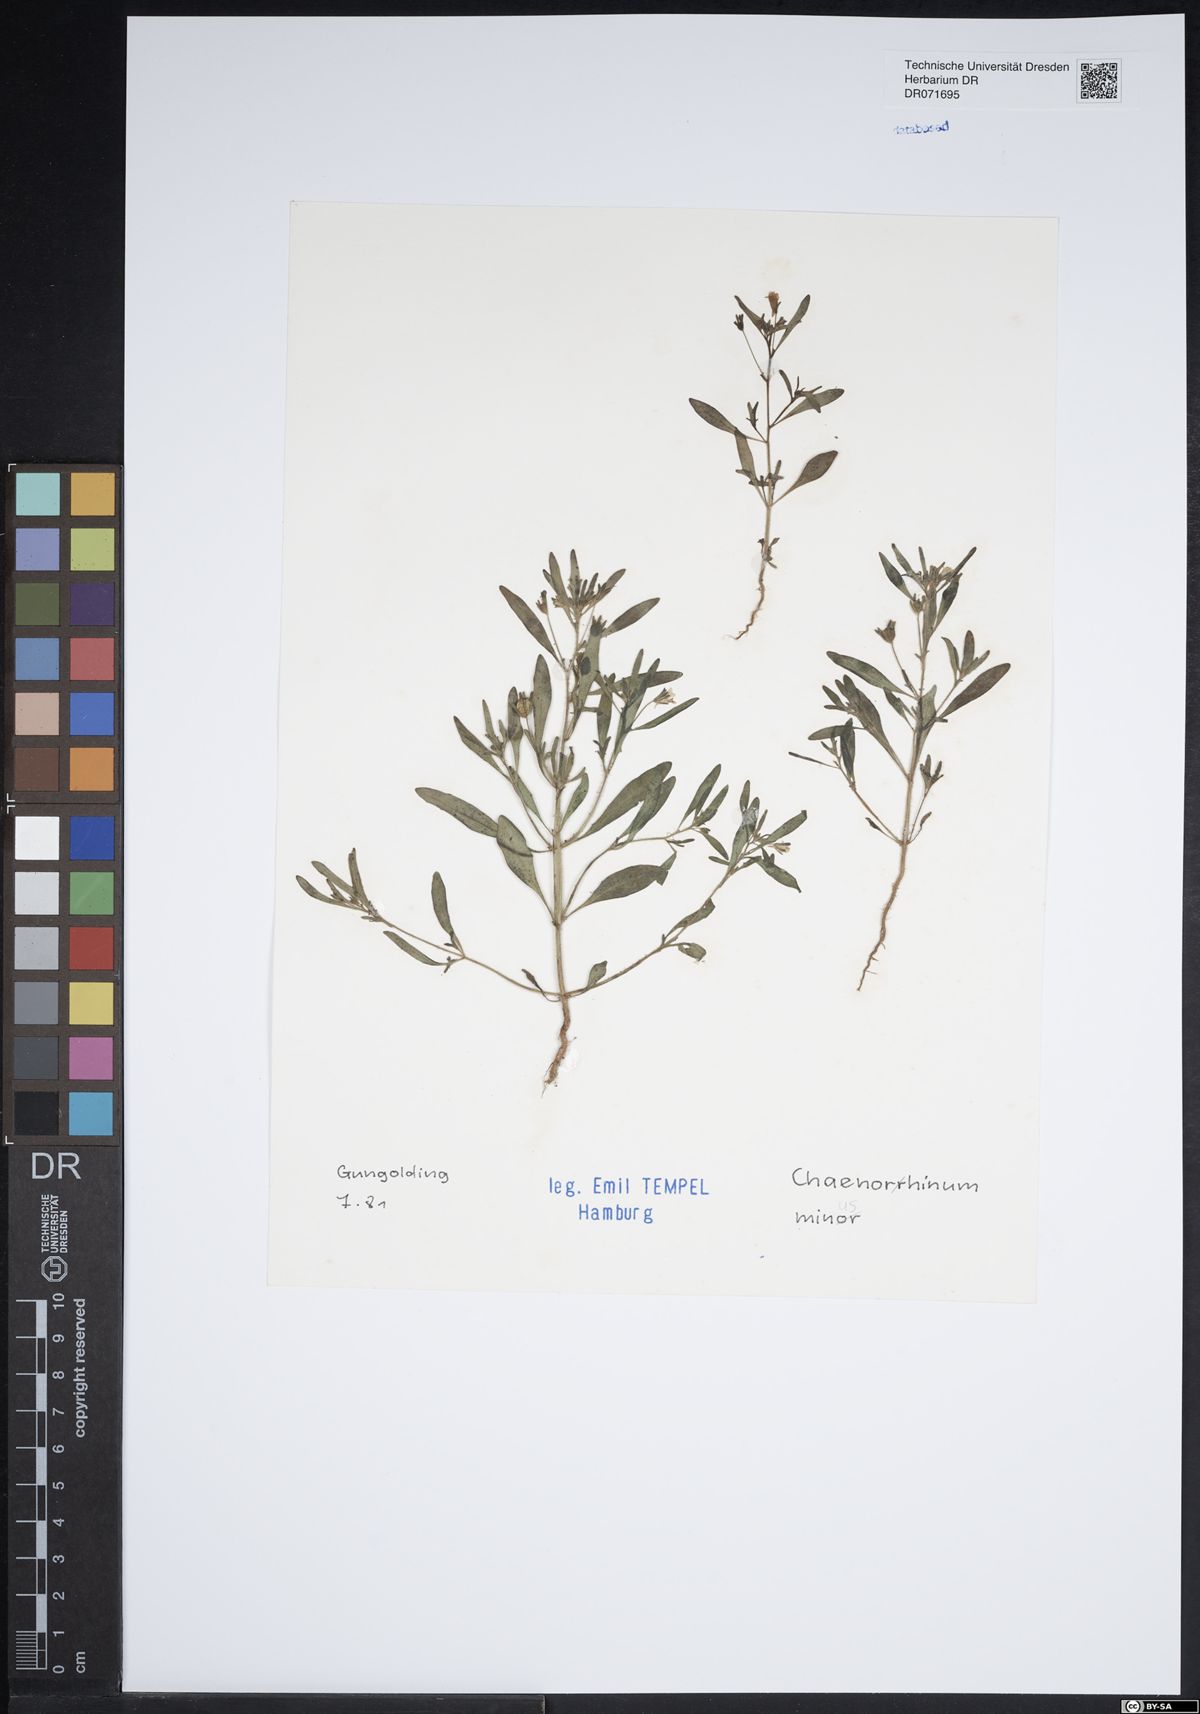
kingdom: Plantae
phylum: Tracheophyta
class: Magnoliopsida
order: Lamiales
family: Plantaginaceae
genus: Chaenorhinum
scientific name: Chaenorhinum minus
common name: Dwarf snapdragon
